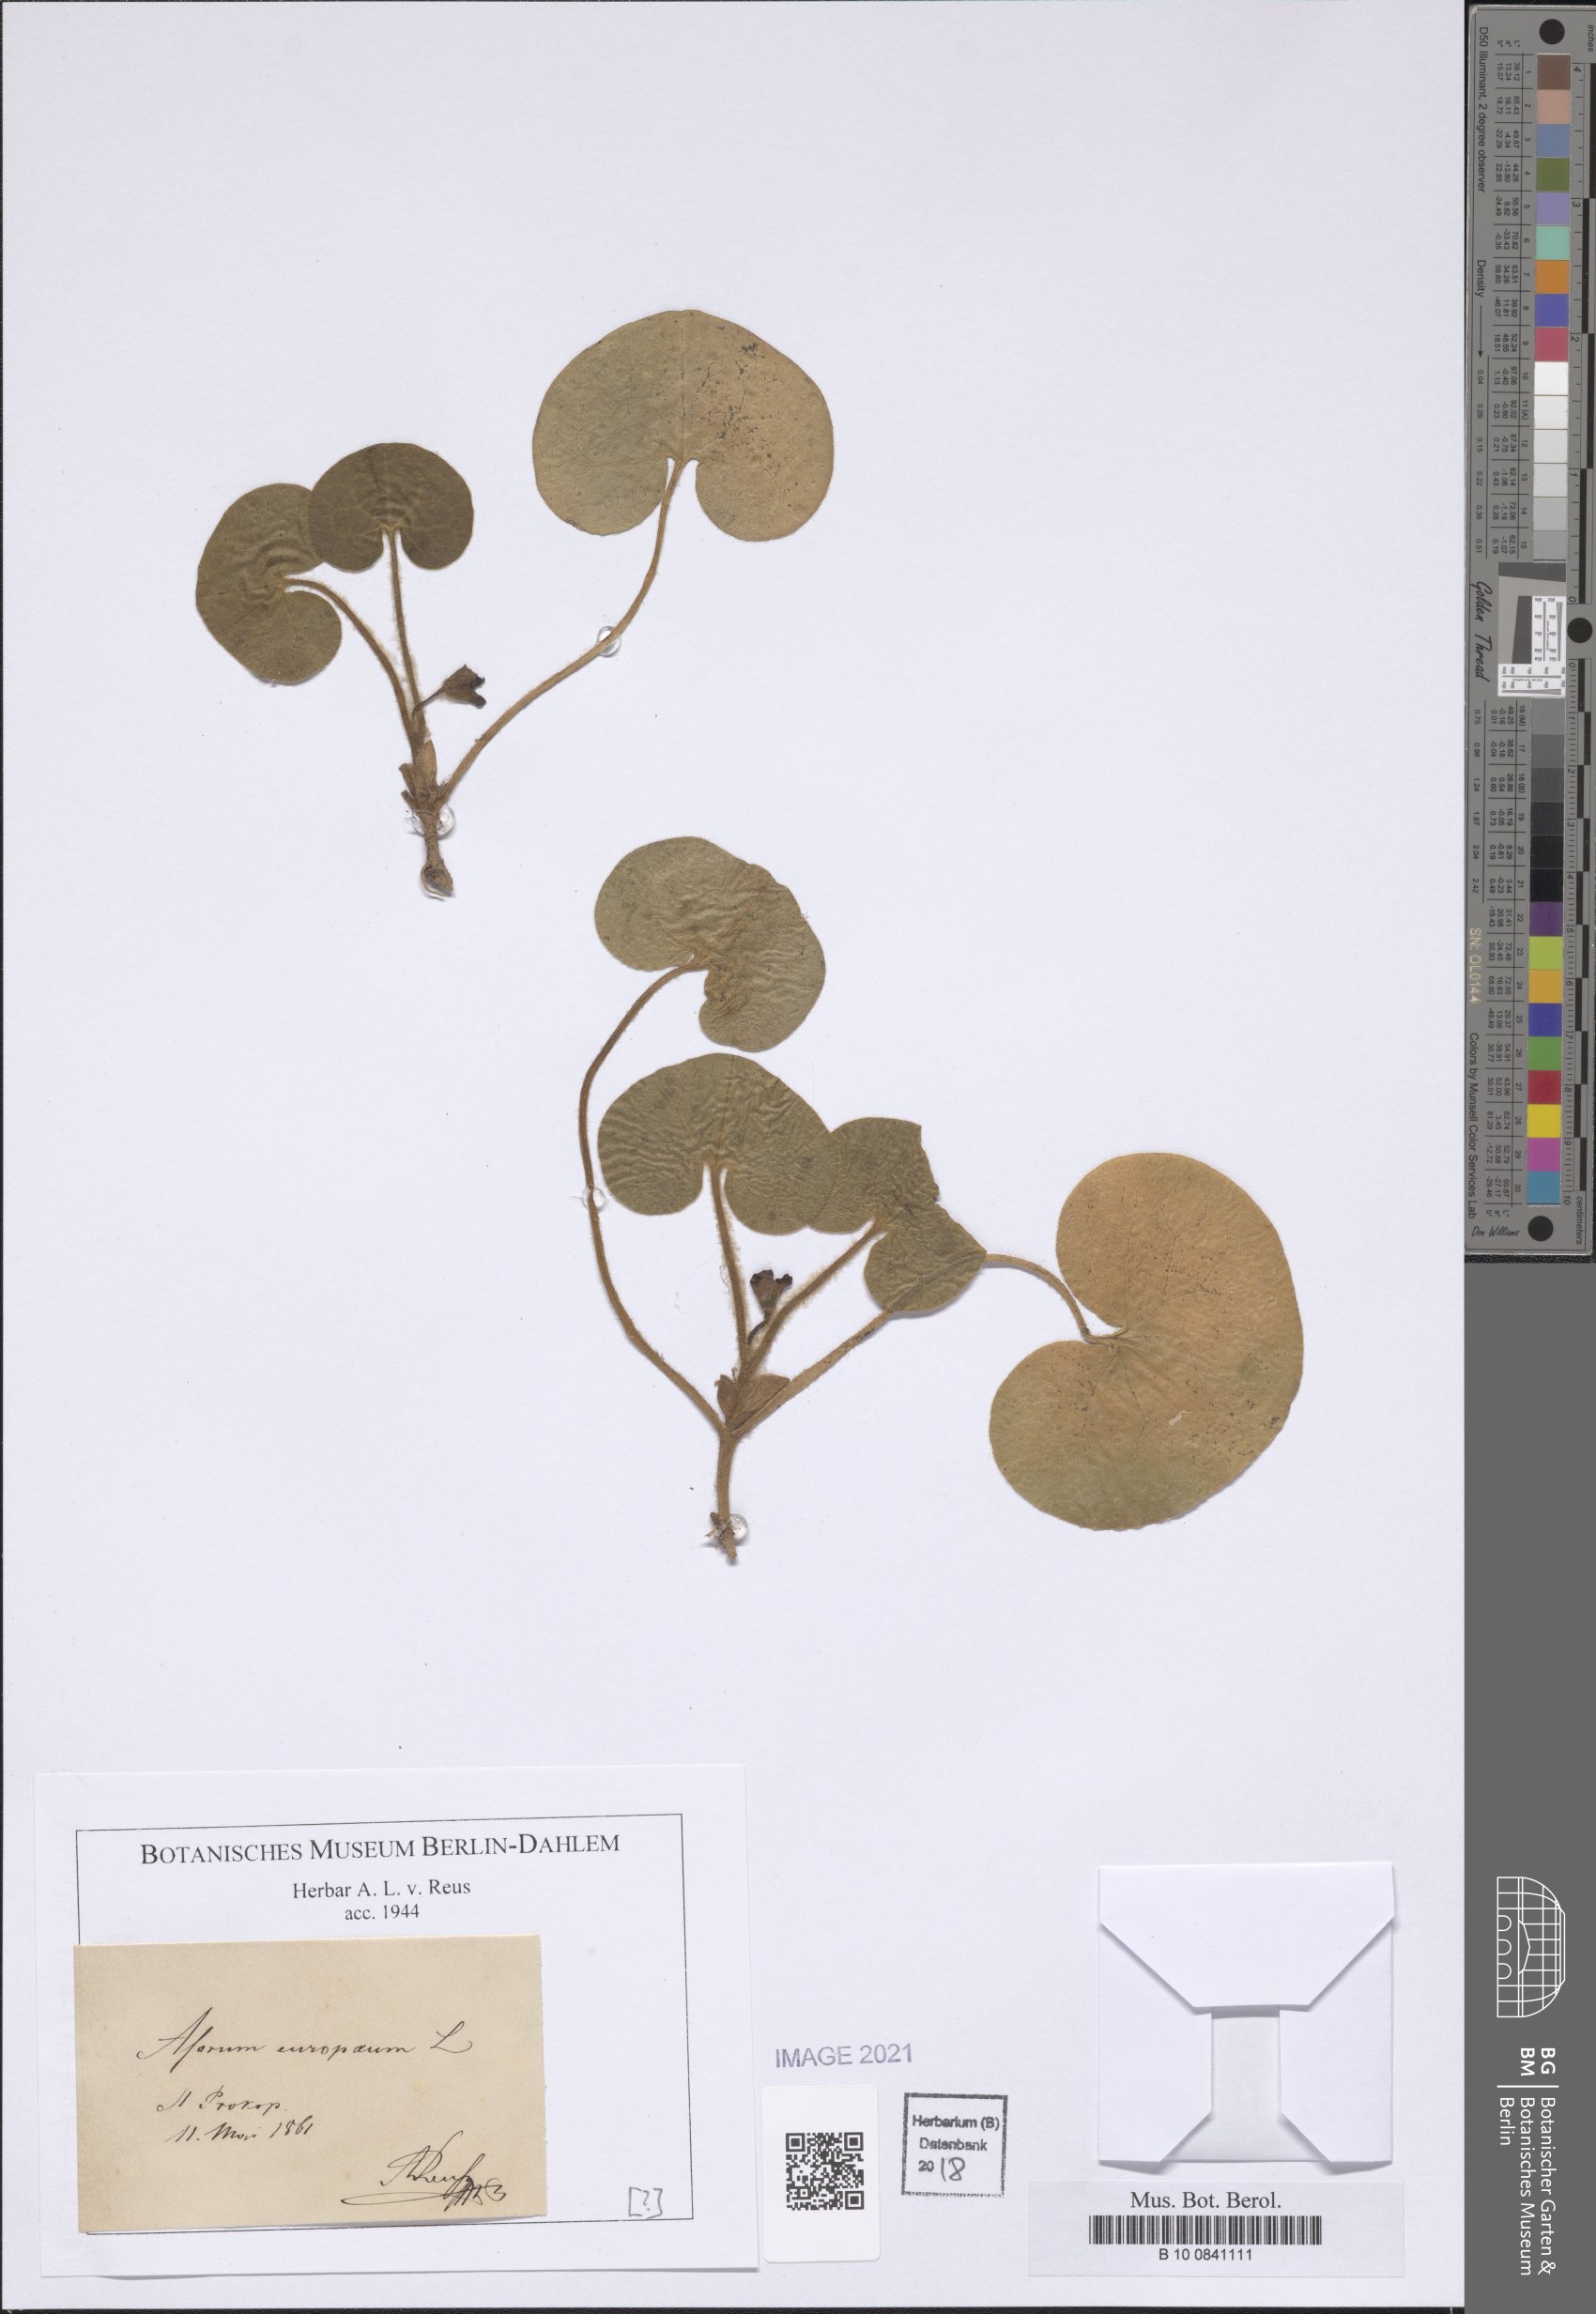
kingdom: Plantae
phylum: Tracheophyta
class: Magnoliopsida
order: Piperales
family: Aristolochiaceae
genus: Asarum
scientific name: Asarum europaeum
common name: Asarabacca
